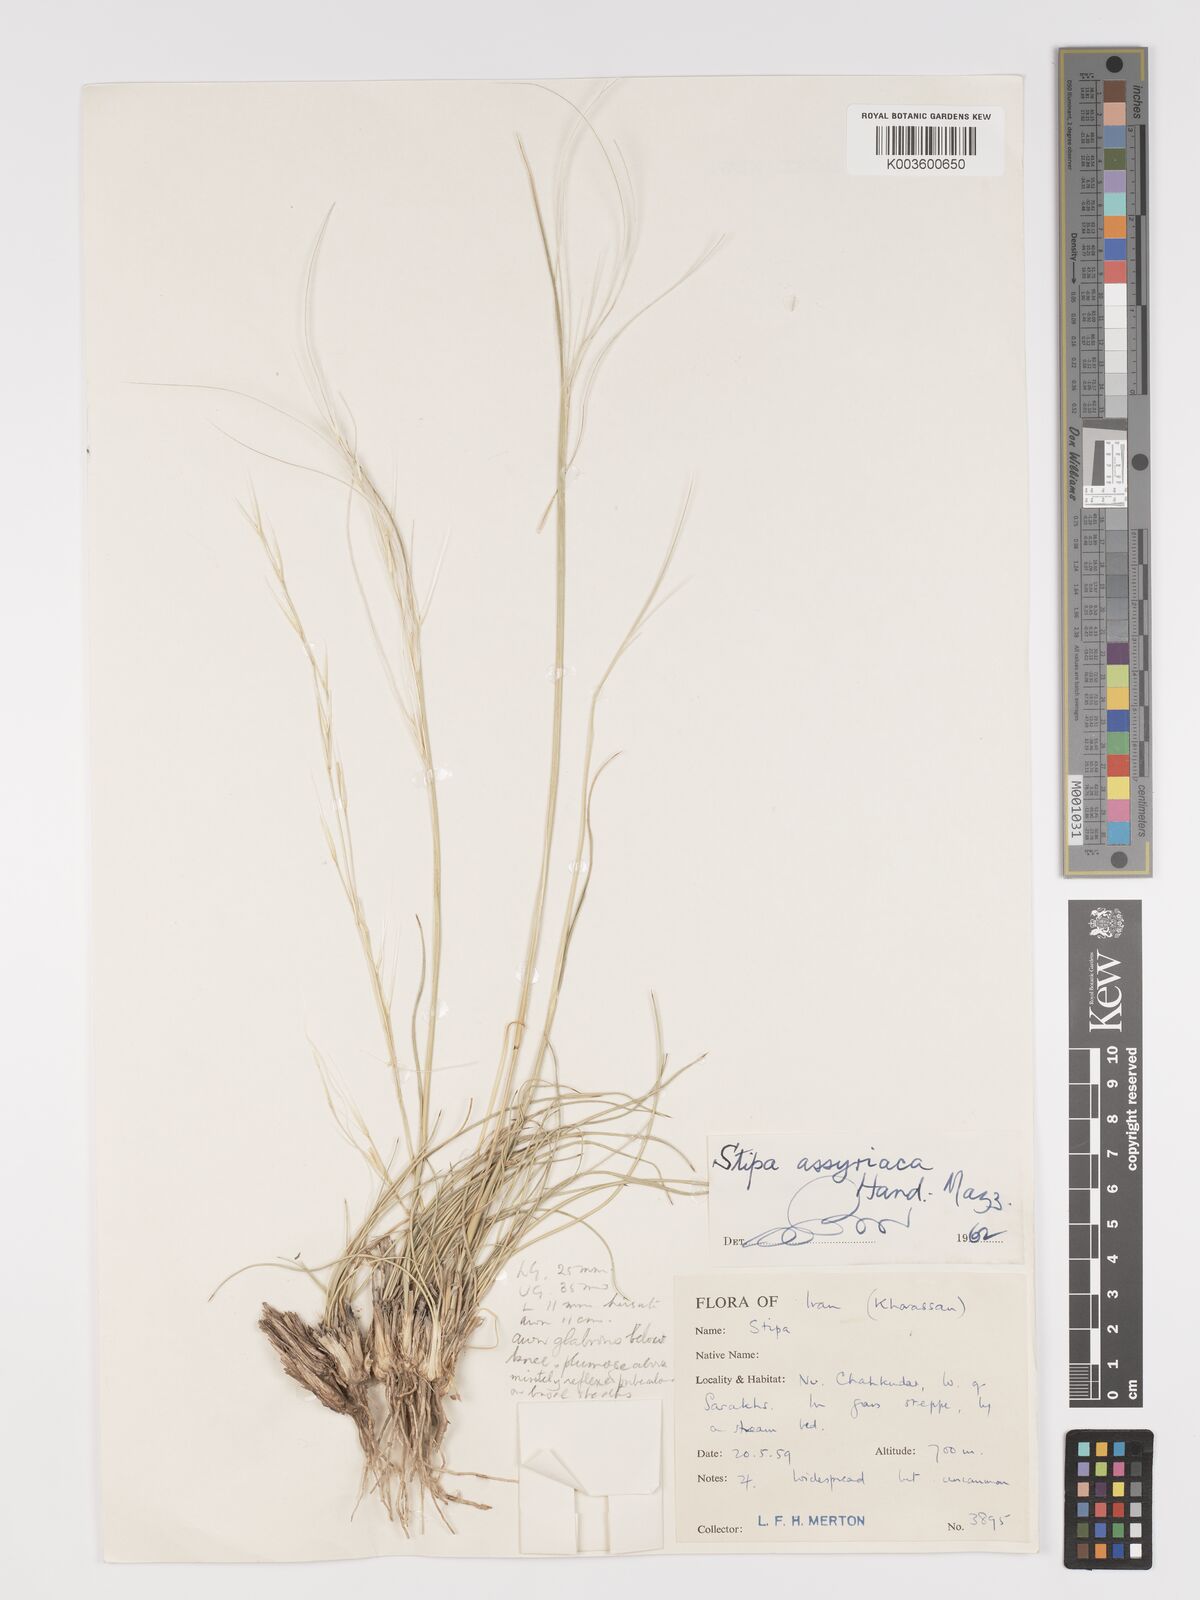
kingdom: Plantae
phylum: Tracheophyta
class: Liliopsida
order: Poales
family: Poaceae
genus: Stipa
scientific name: Stipa hohenackeriana
